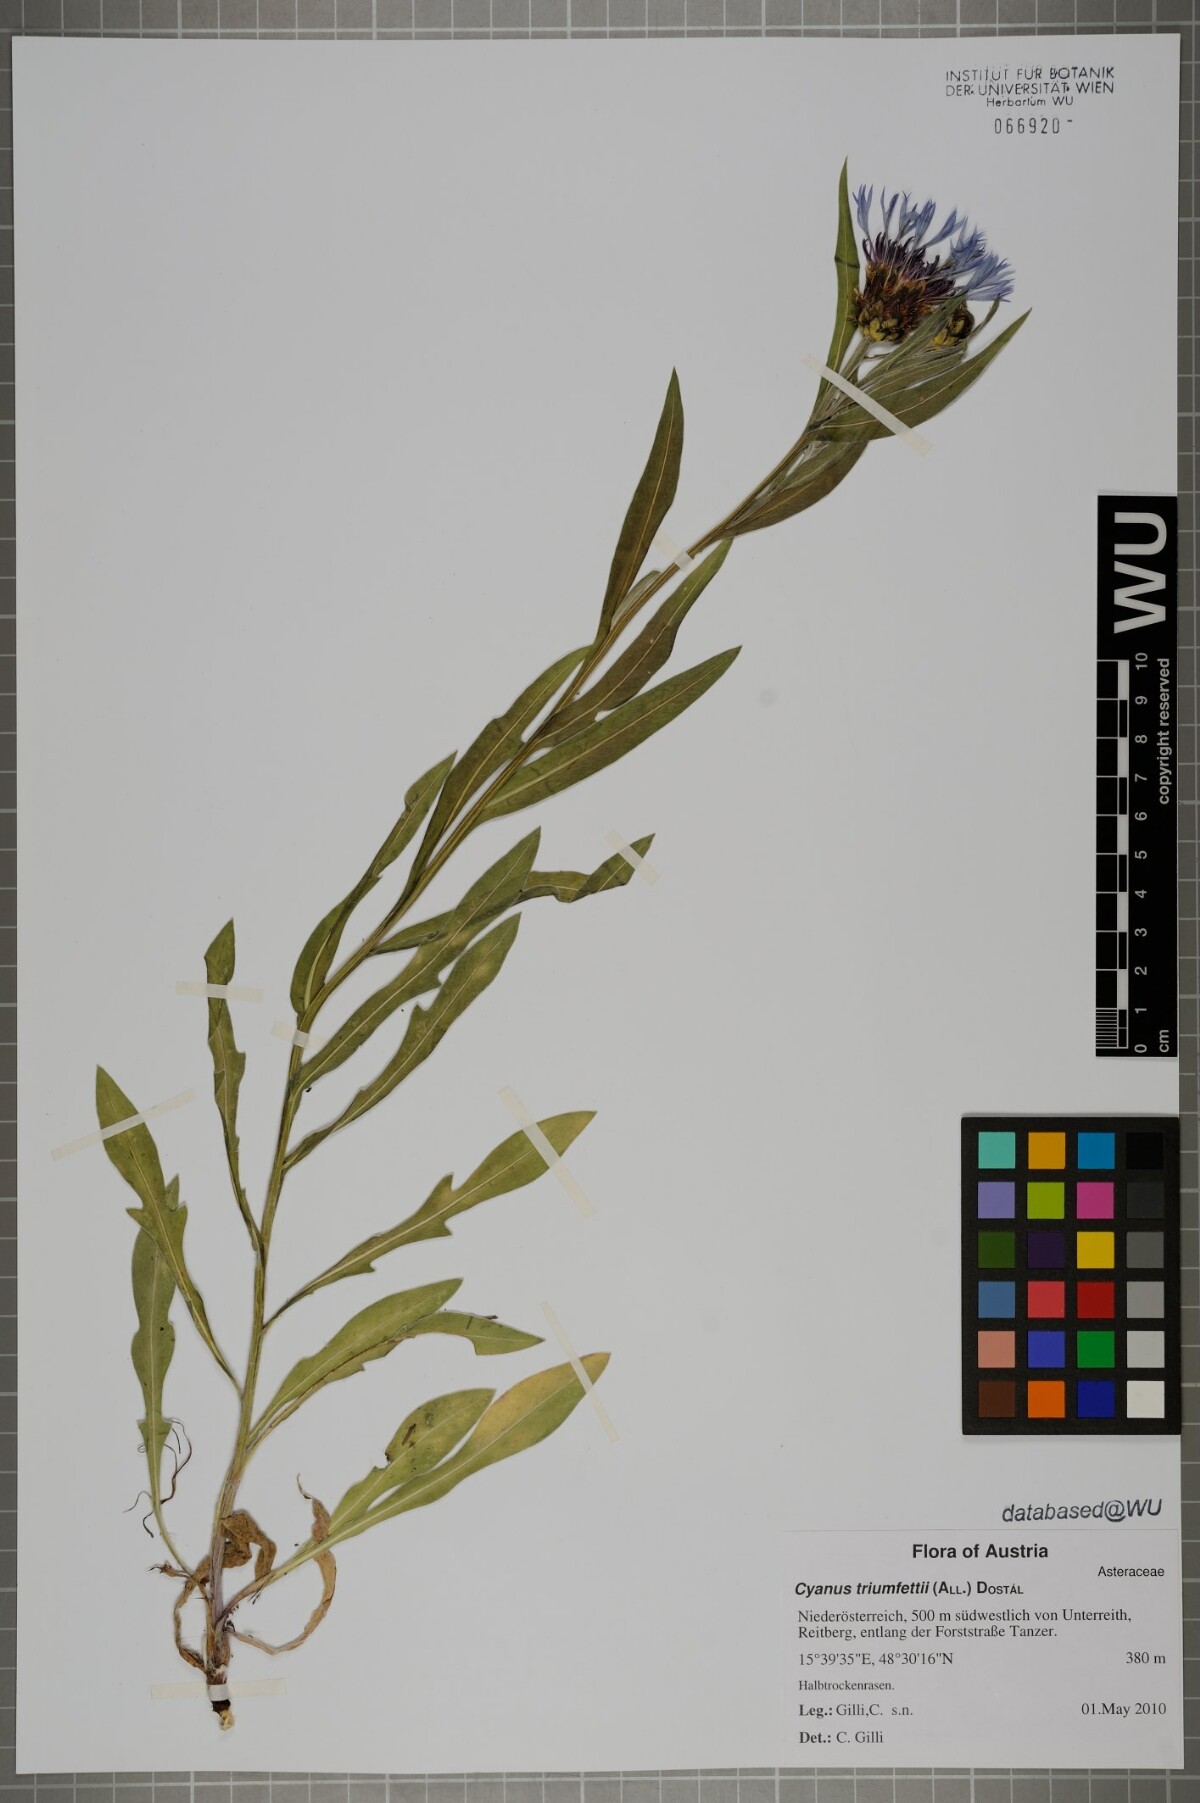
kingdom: Plantae
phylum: Tracheophyta
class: Magnoliopsida
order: Asterales
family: Asteraceae
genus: Centaurea
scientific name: Centaurea triumfettii
